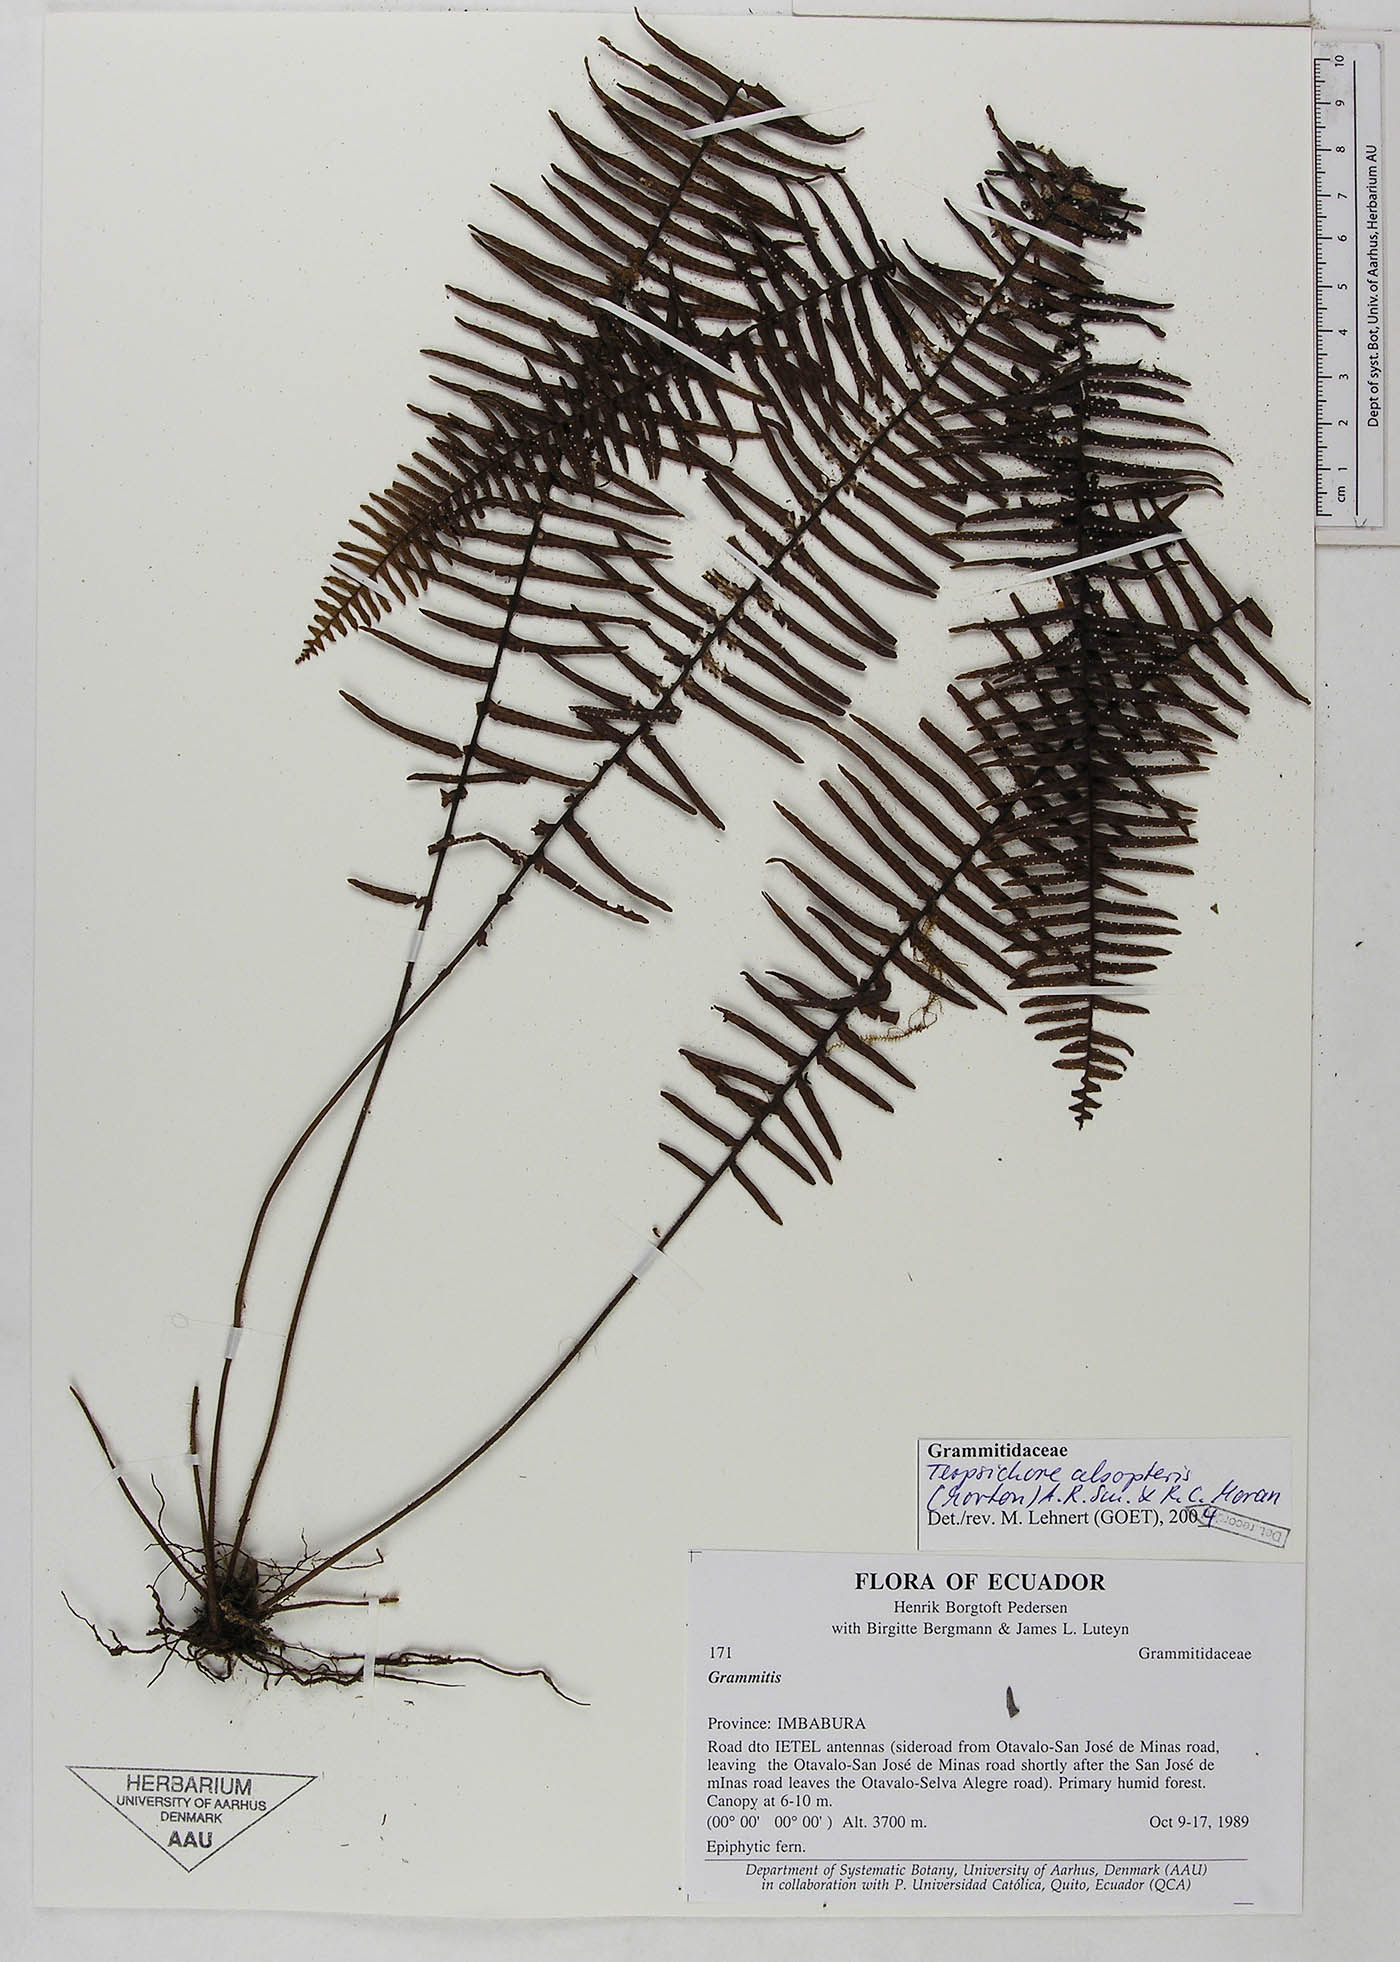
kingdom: Plantae
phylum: Tracheophyta
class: Polypodiopsida
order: Polypodiales
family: Polypodiaceae
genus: Mycopteris
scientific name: Mycopteris alsopteris
